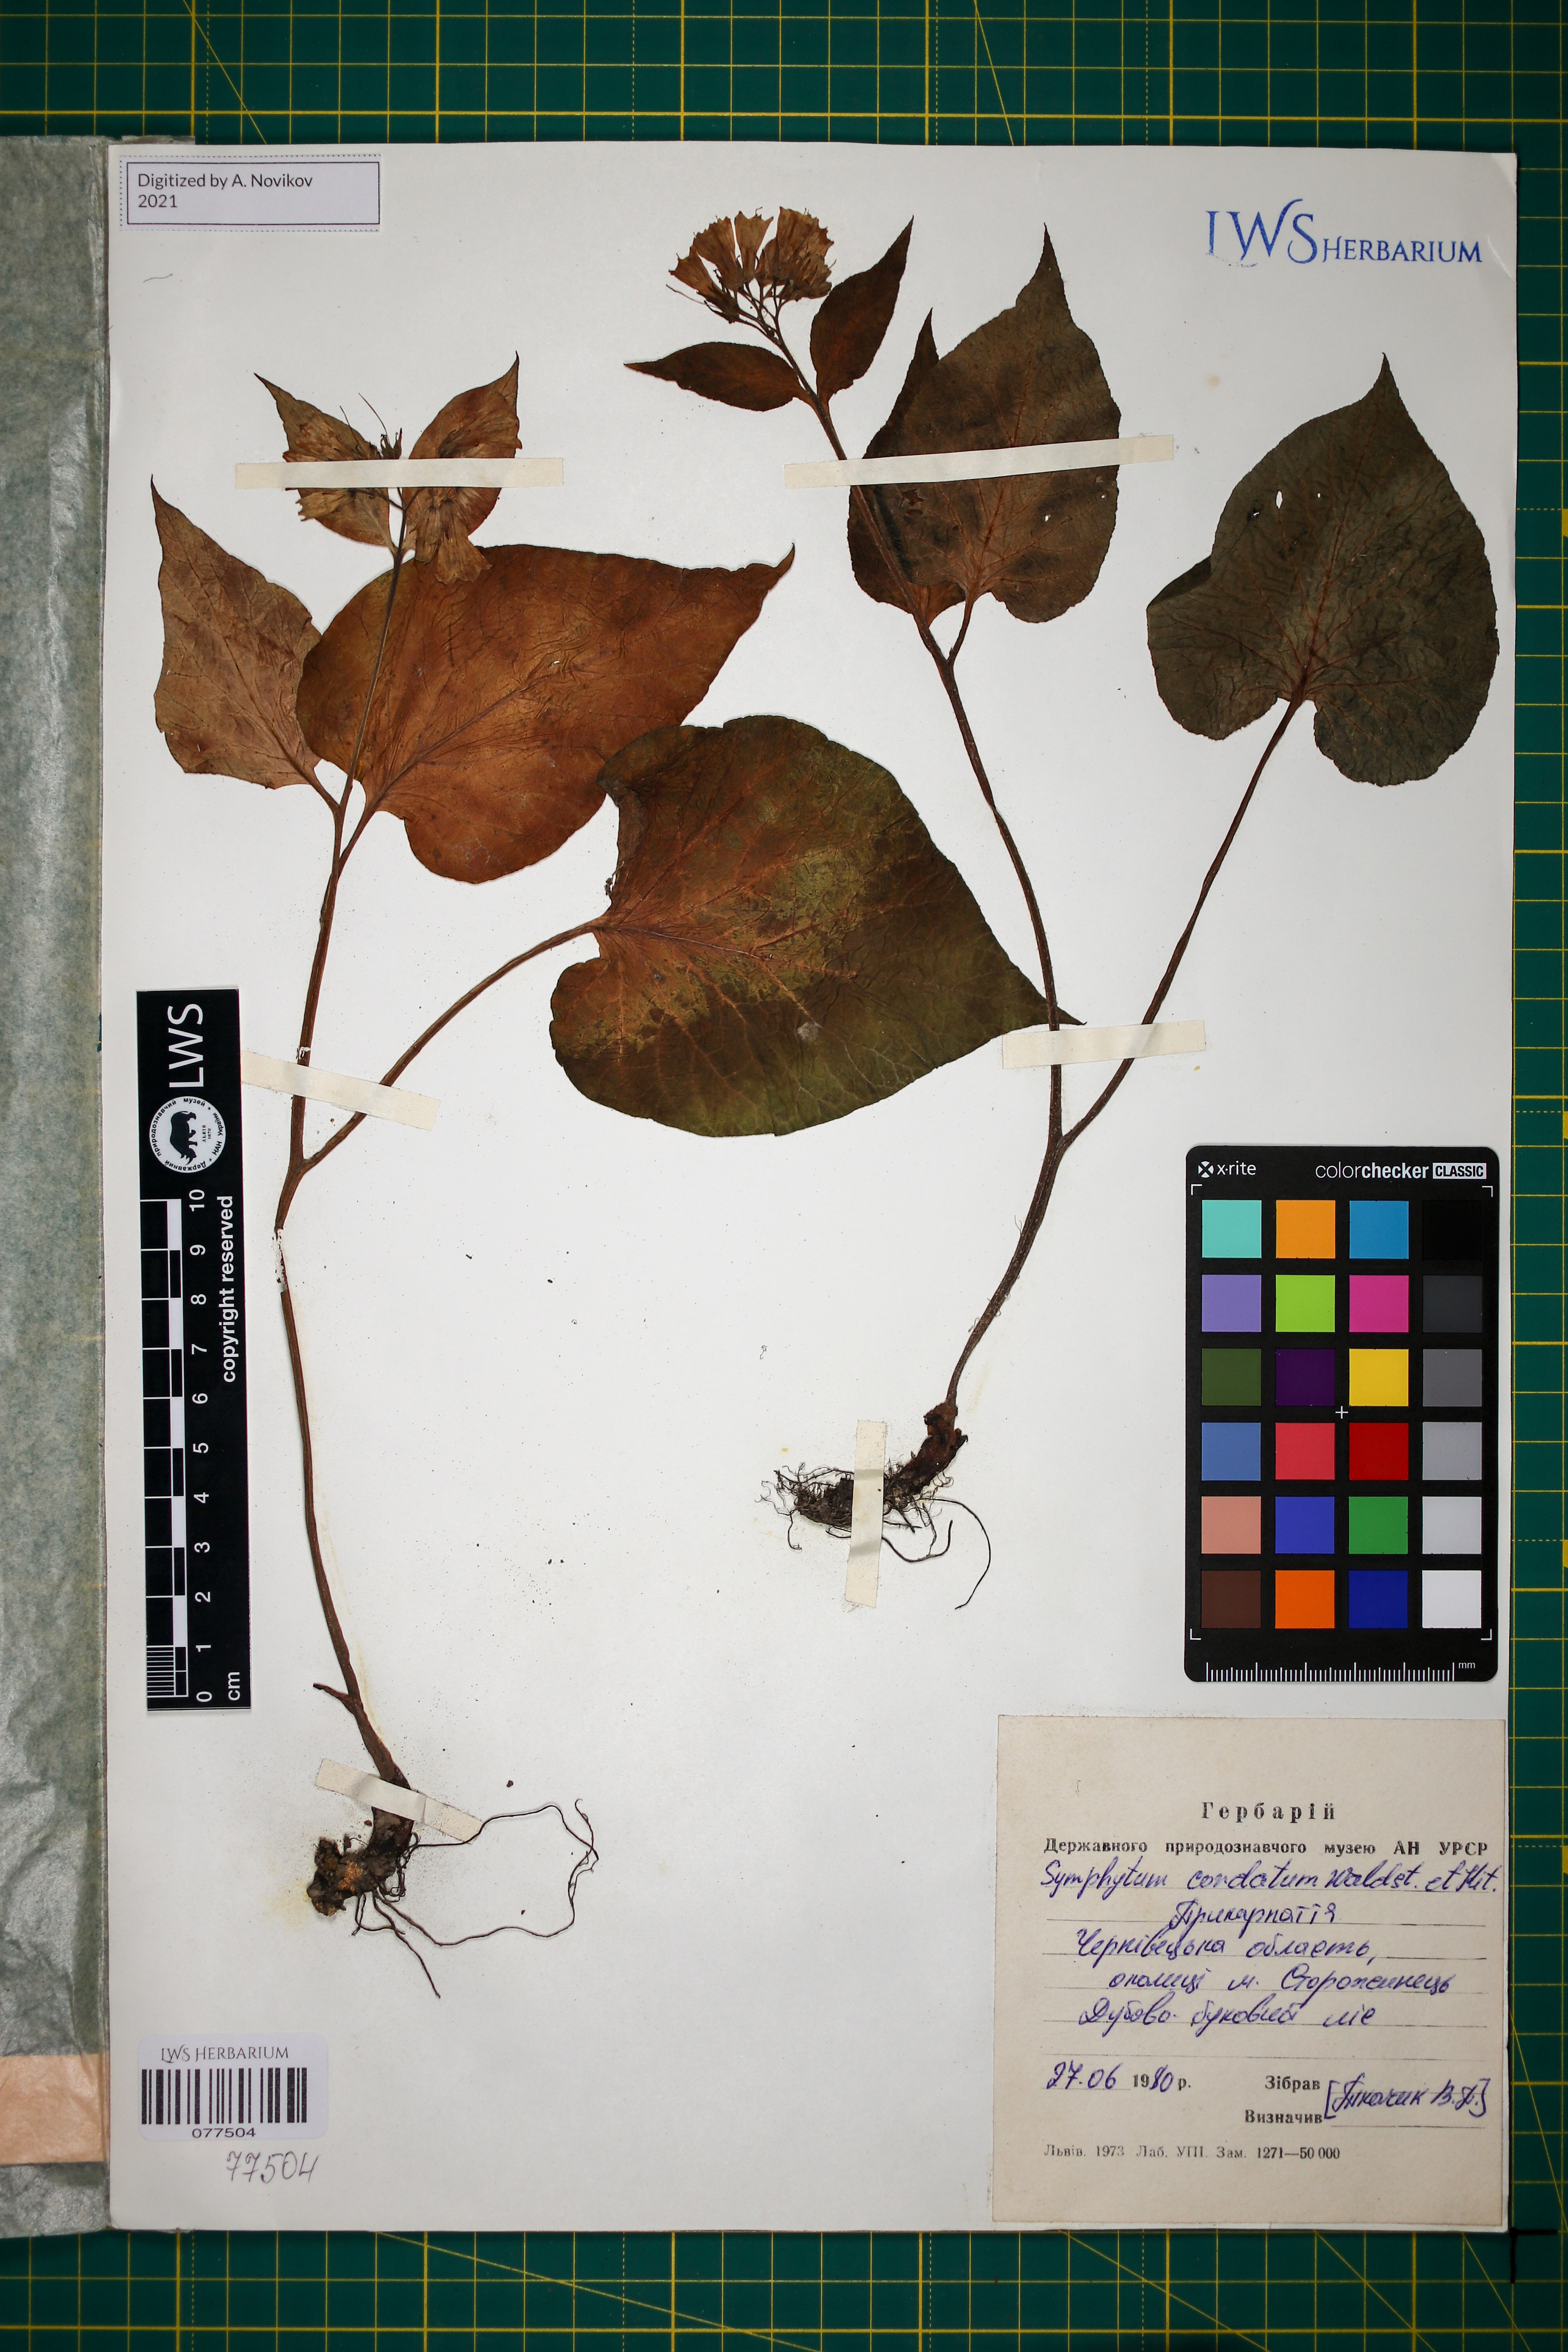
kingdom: Plantae
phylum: Tracheophyta
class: Magnoliopsida
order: Boraginales
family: Boraginaceae
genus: Symphytum
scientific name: Symphytum cordatum
